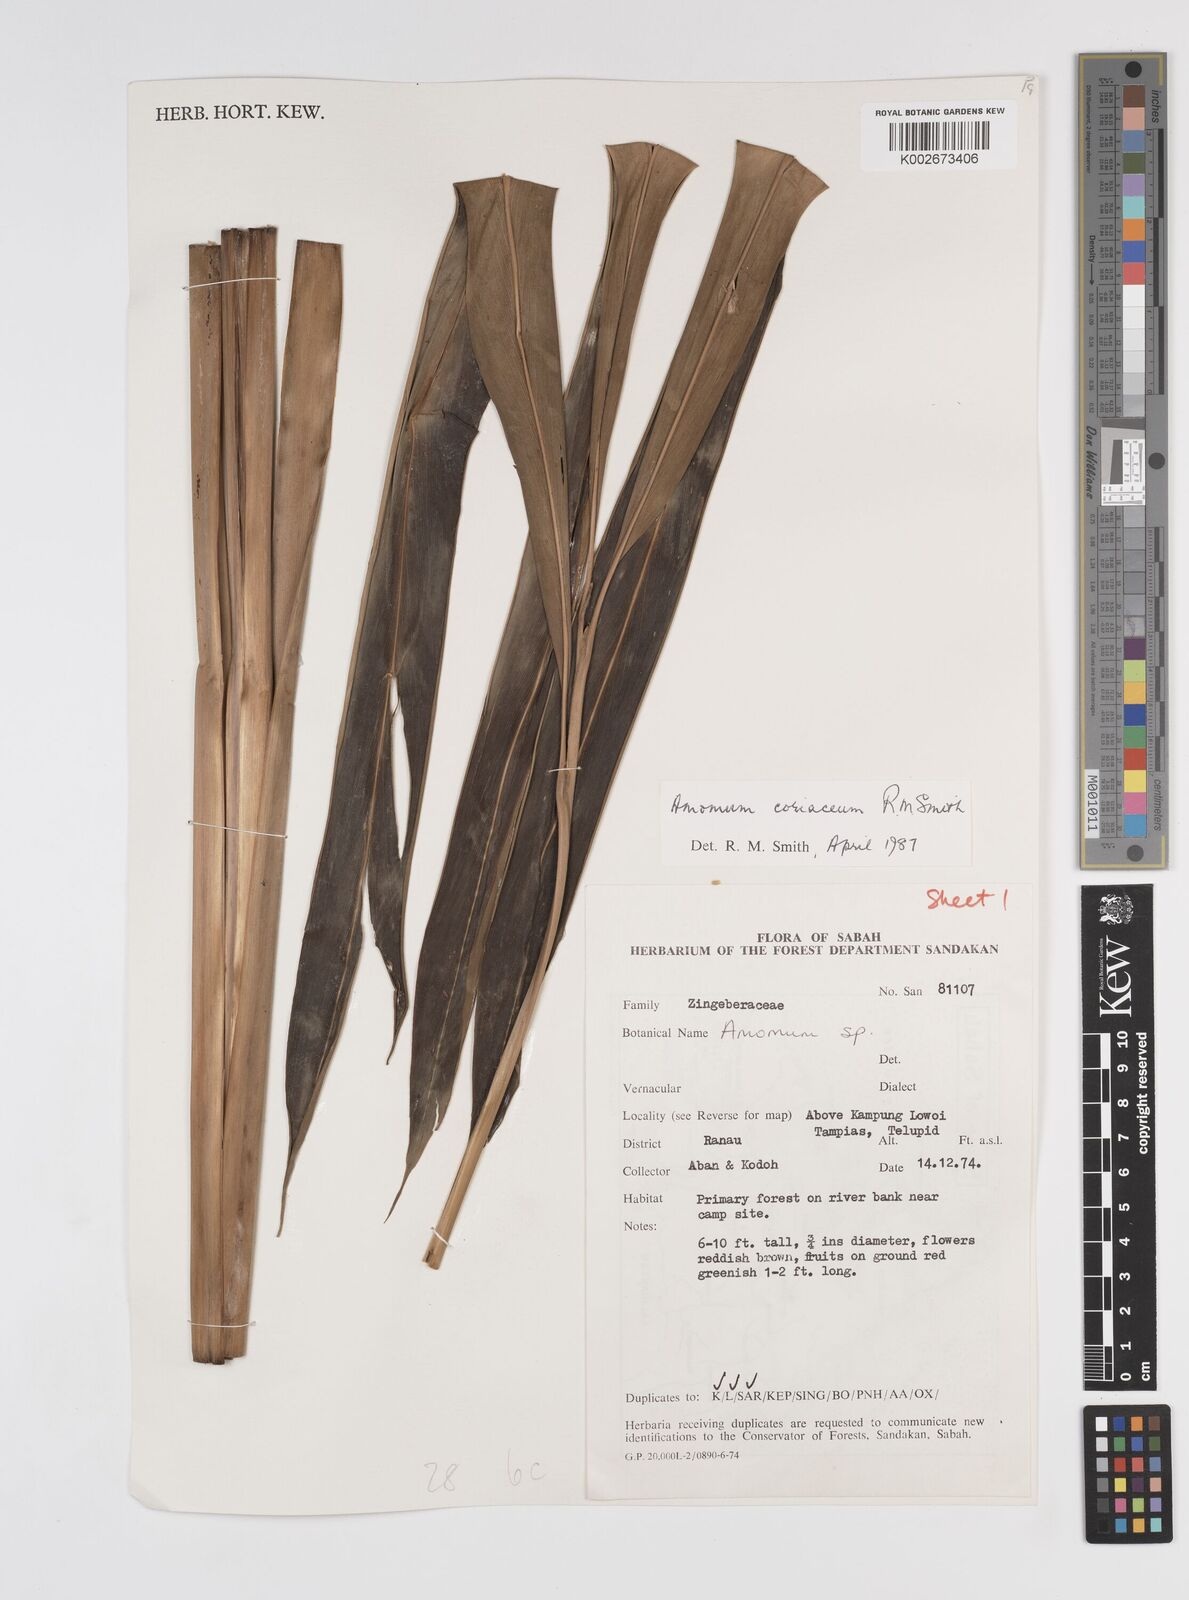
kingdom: Plantae
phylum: Tracheophyta
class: Liliopsida
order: Zingiberales
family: Zingiberaceae
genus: Conamomum
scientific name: Conamomum cylindrostachys
